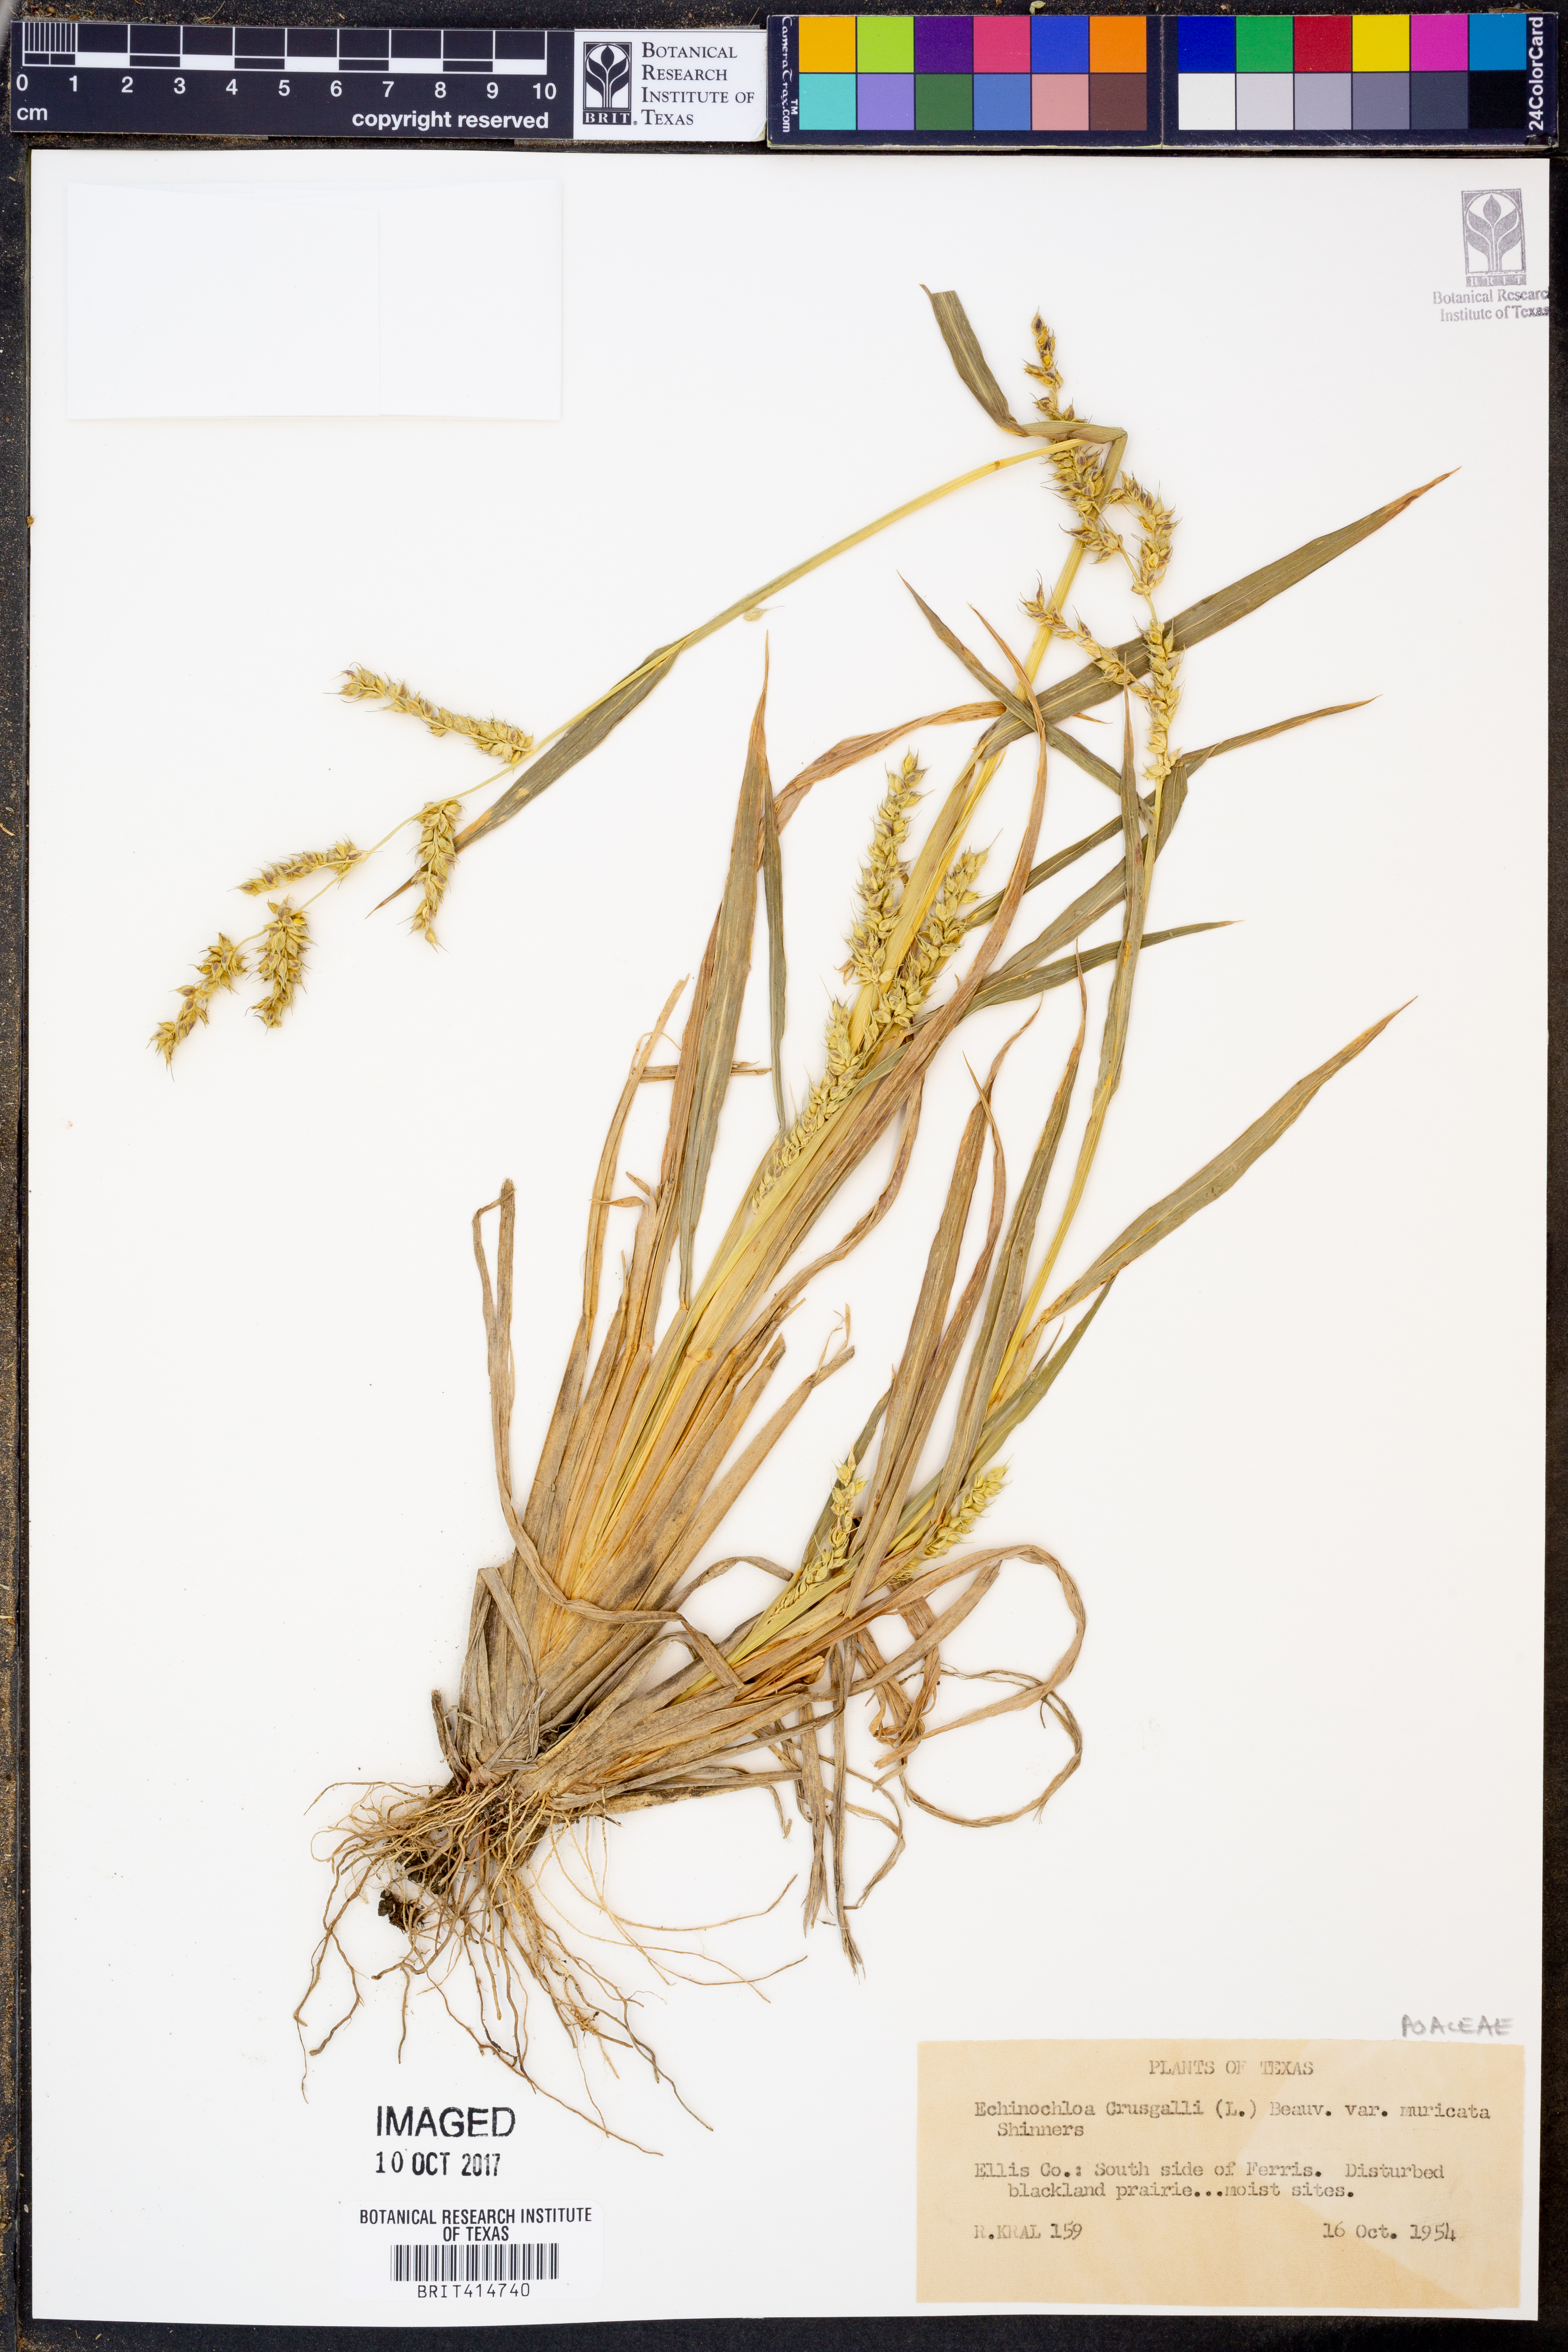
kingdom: Plantae
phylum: Tracheophyta
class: Liliopsida
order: Poales
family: Poaceae
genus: Echinochloa
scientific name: Echinochloa muricata
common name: American barnyard grass
